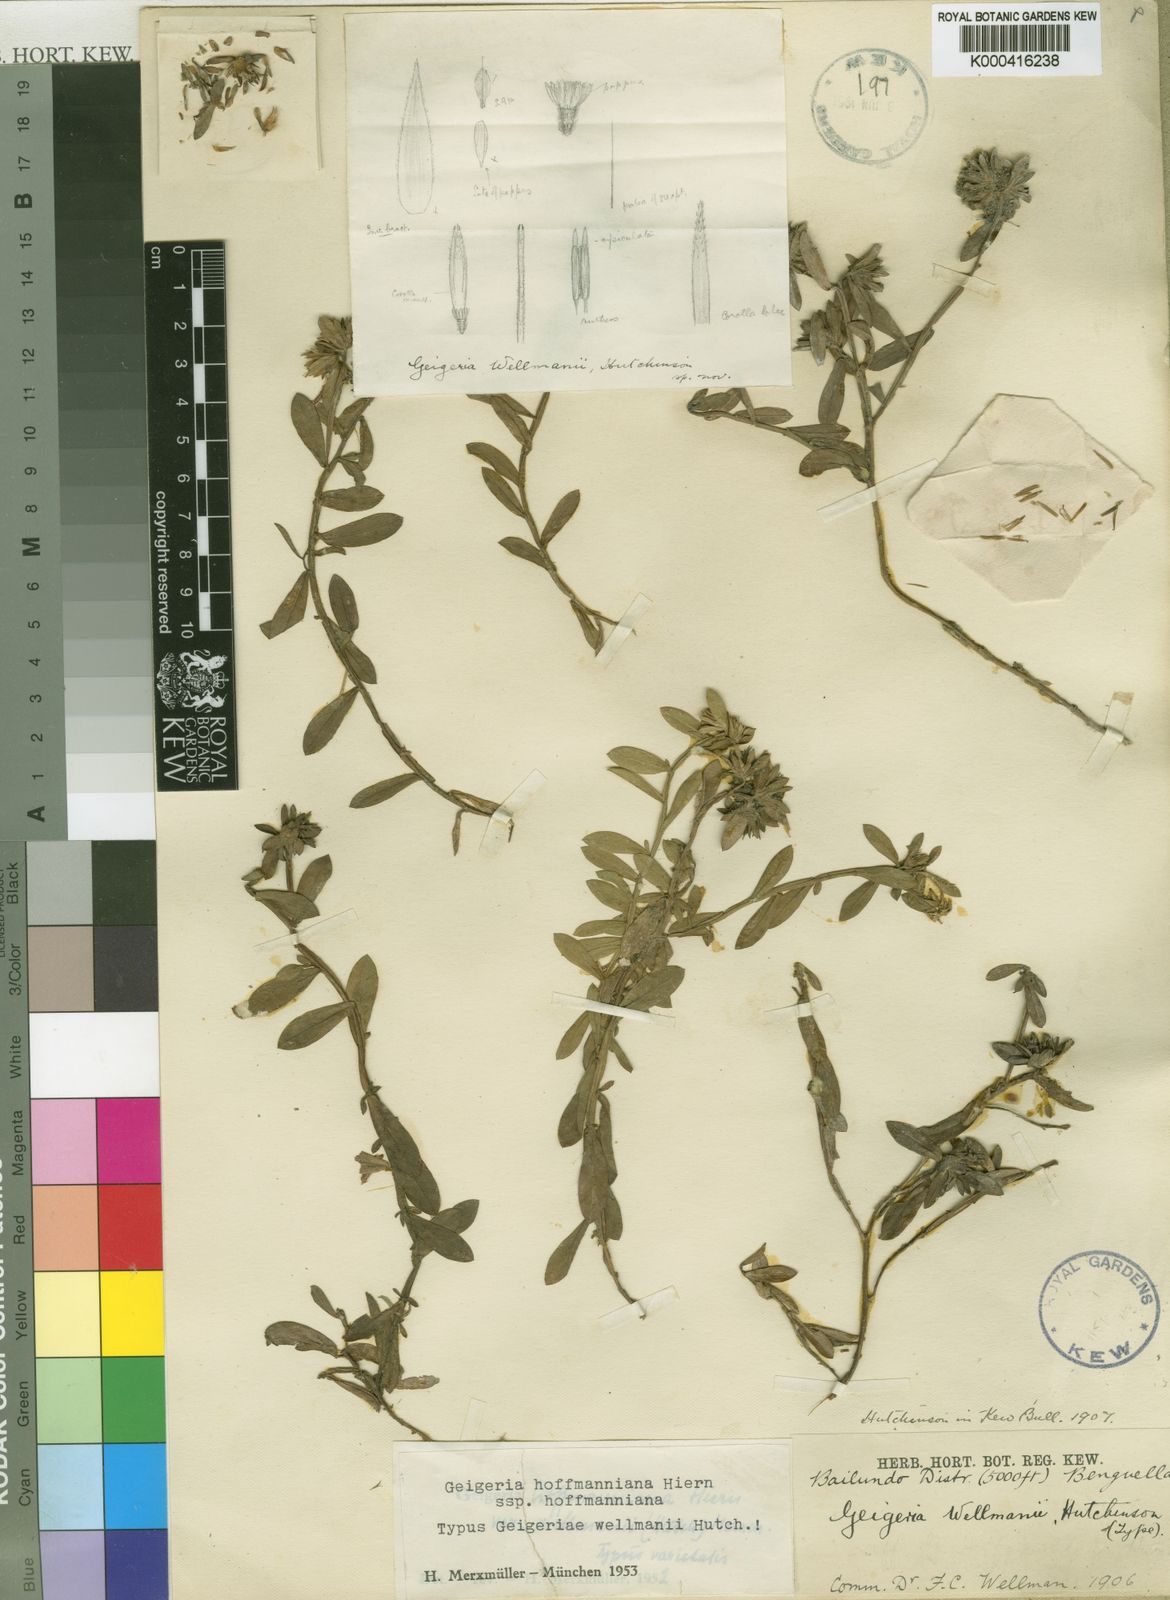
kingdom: Plantae
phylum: Tracheophyta
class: Magnoliopsida
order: Asterales
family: Asteraceae
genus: Geigeria
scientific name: Geigeria hoffmanniana
